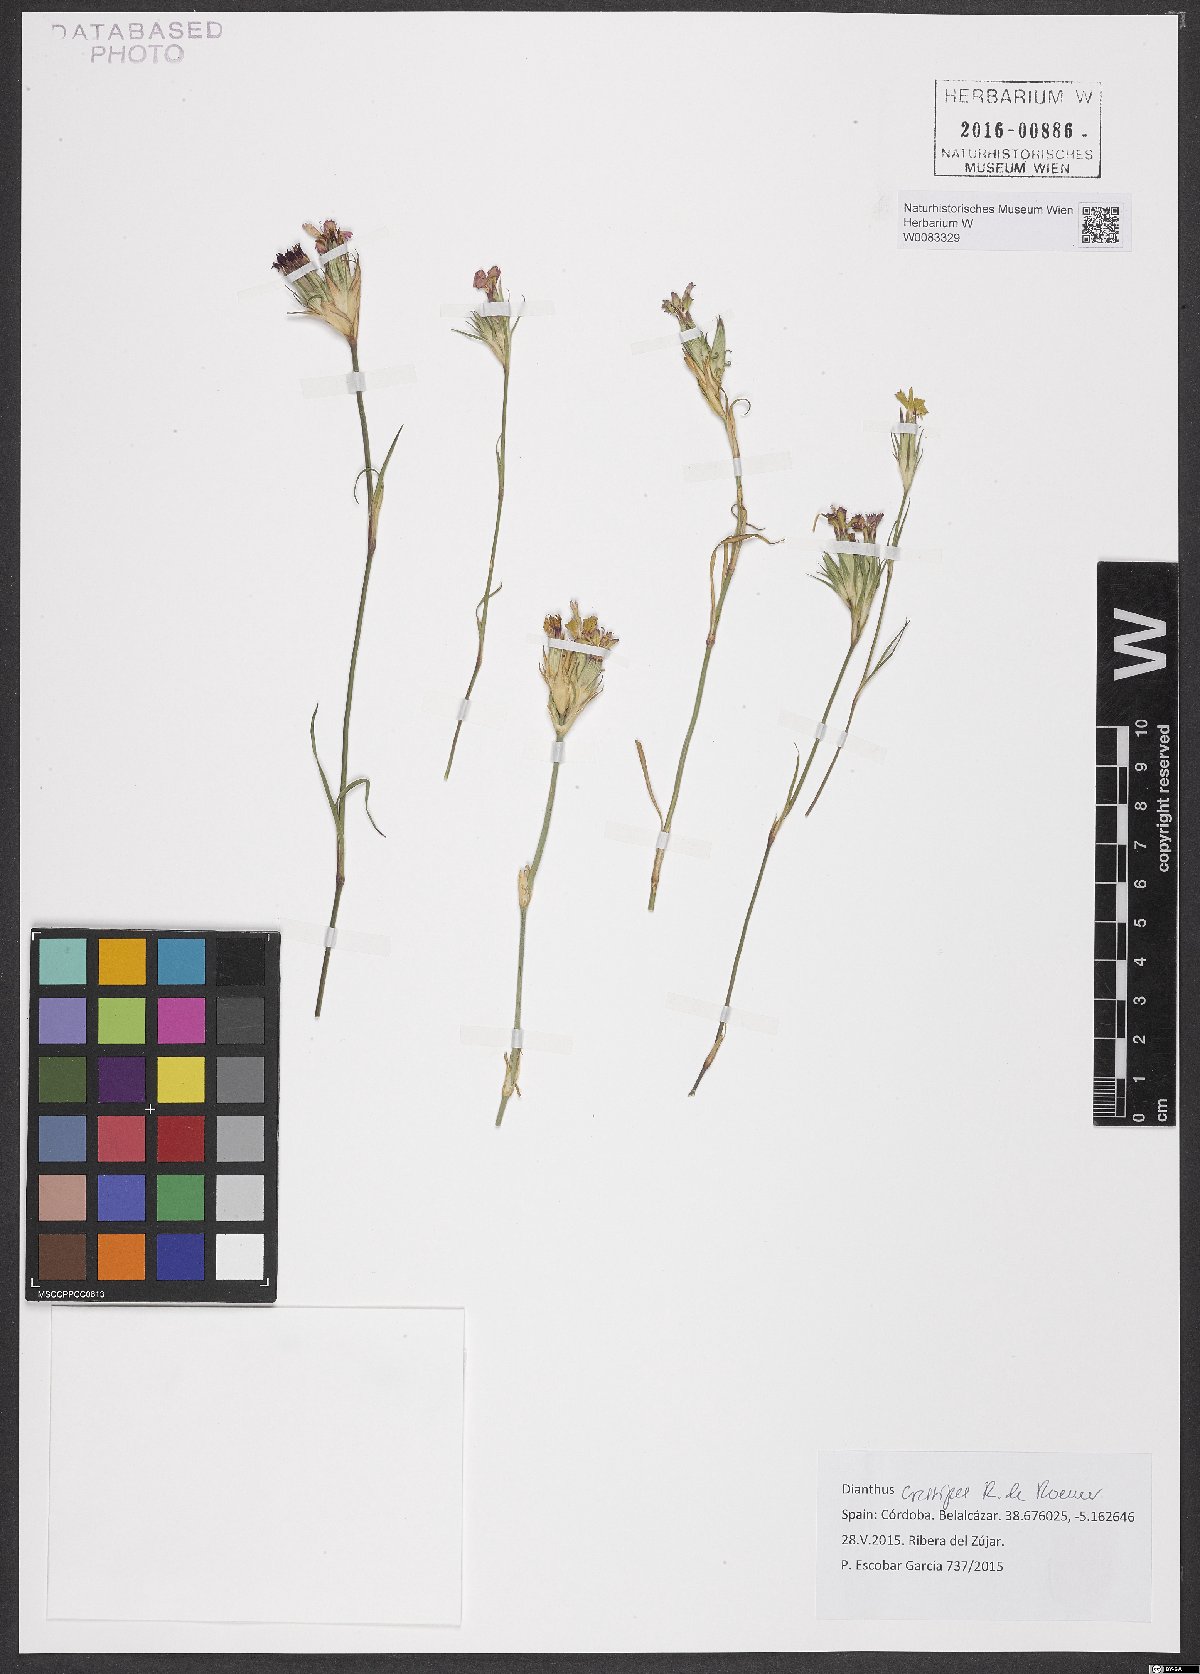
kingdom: Plantae
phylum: Tracheophyta
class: Magnoliopsida
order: Caryophyllales
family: Caryophyllaceae
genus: Dianthus
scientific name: Dianthus crassipes
